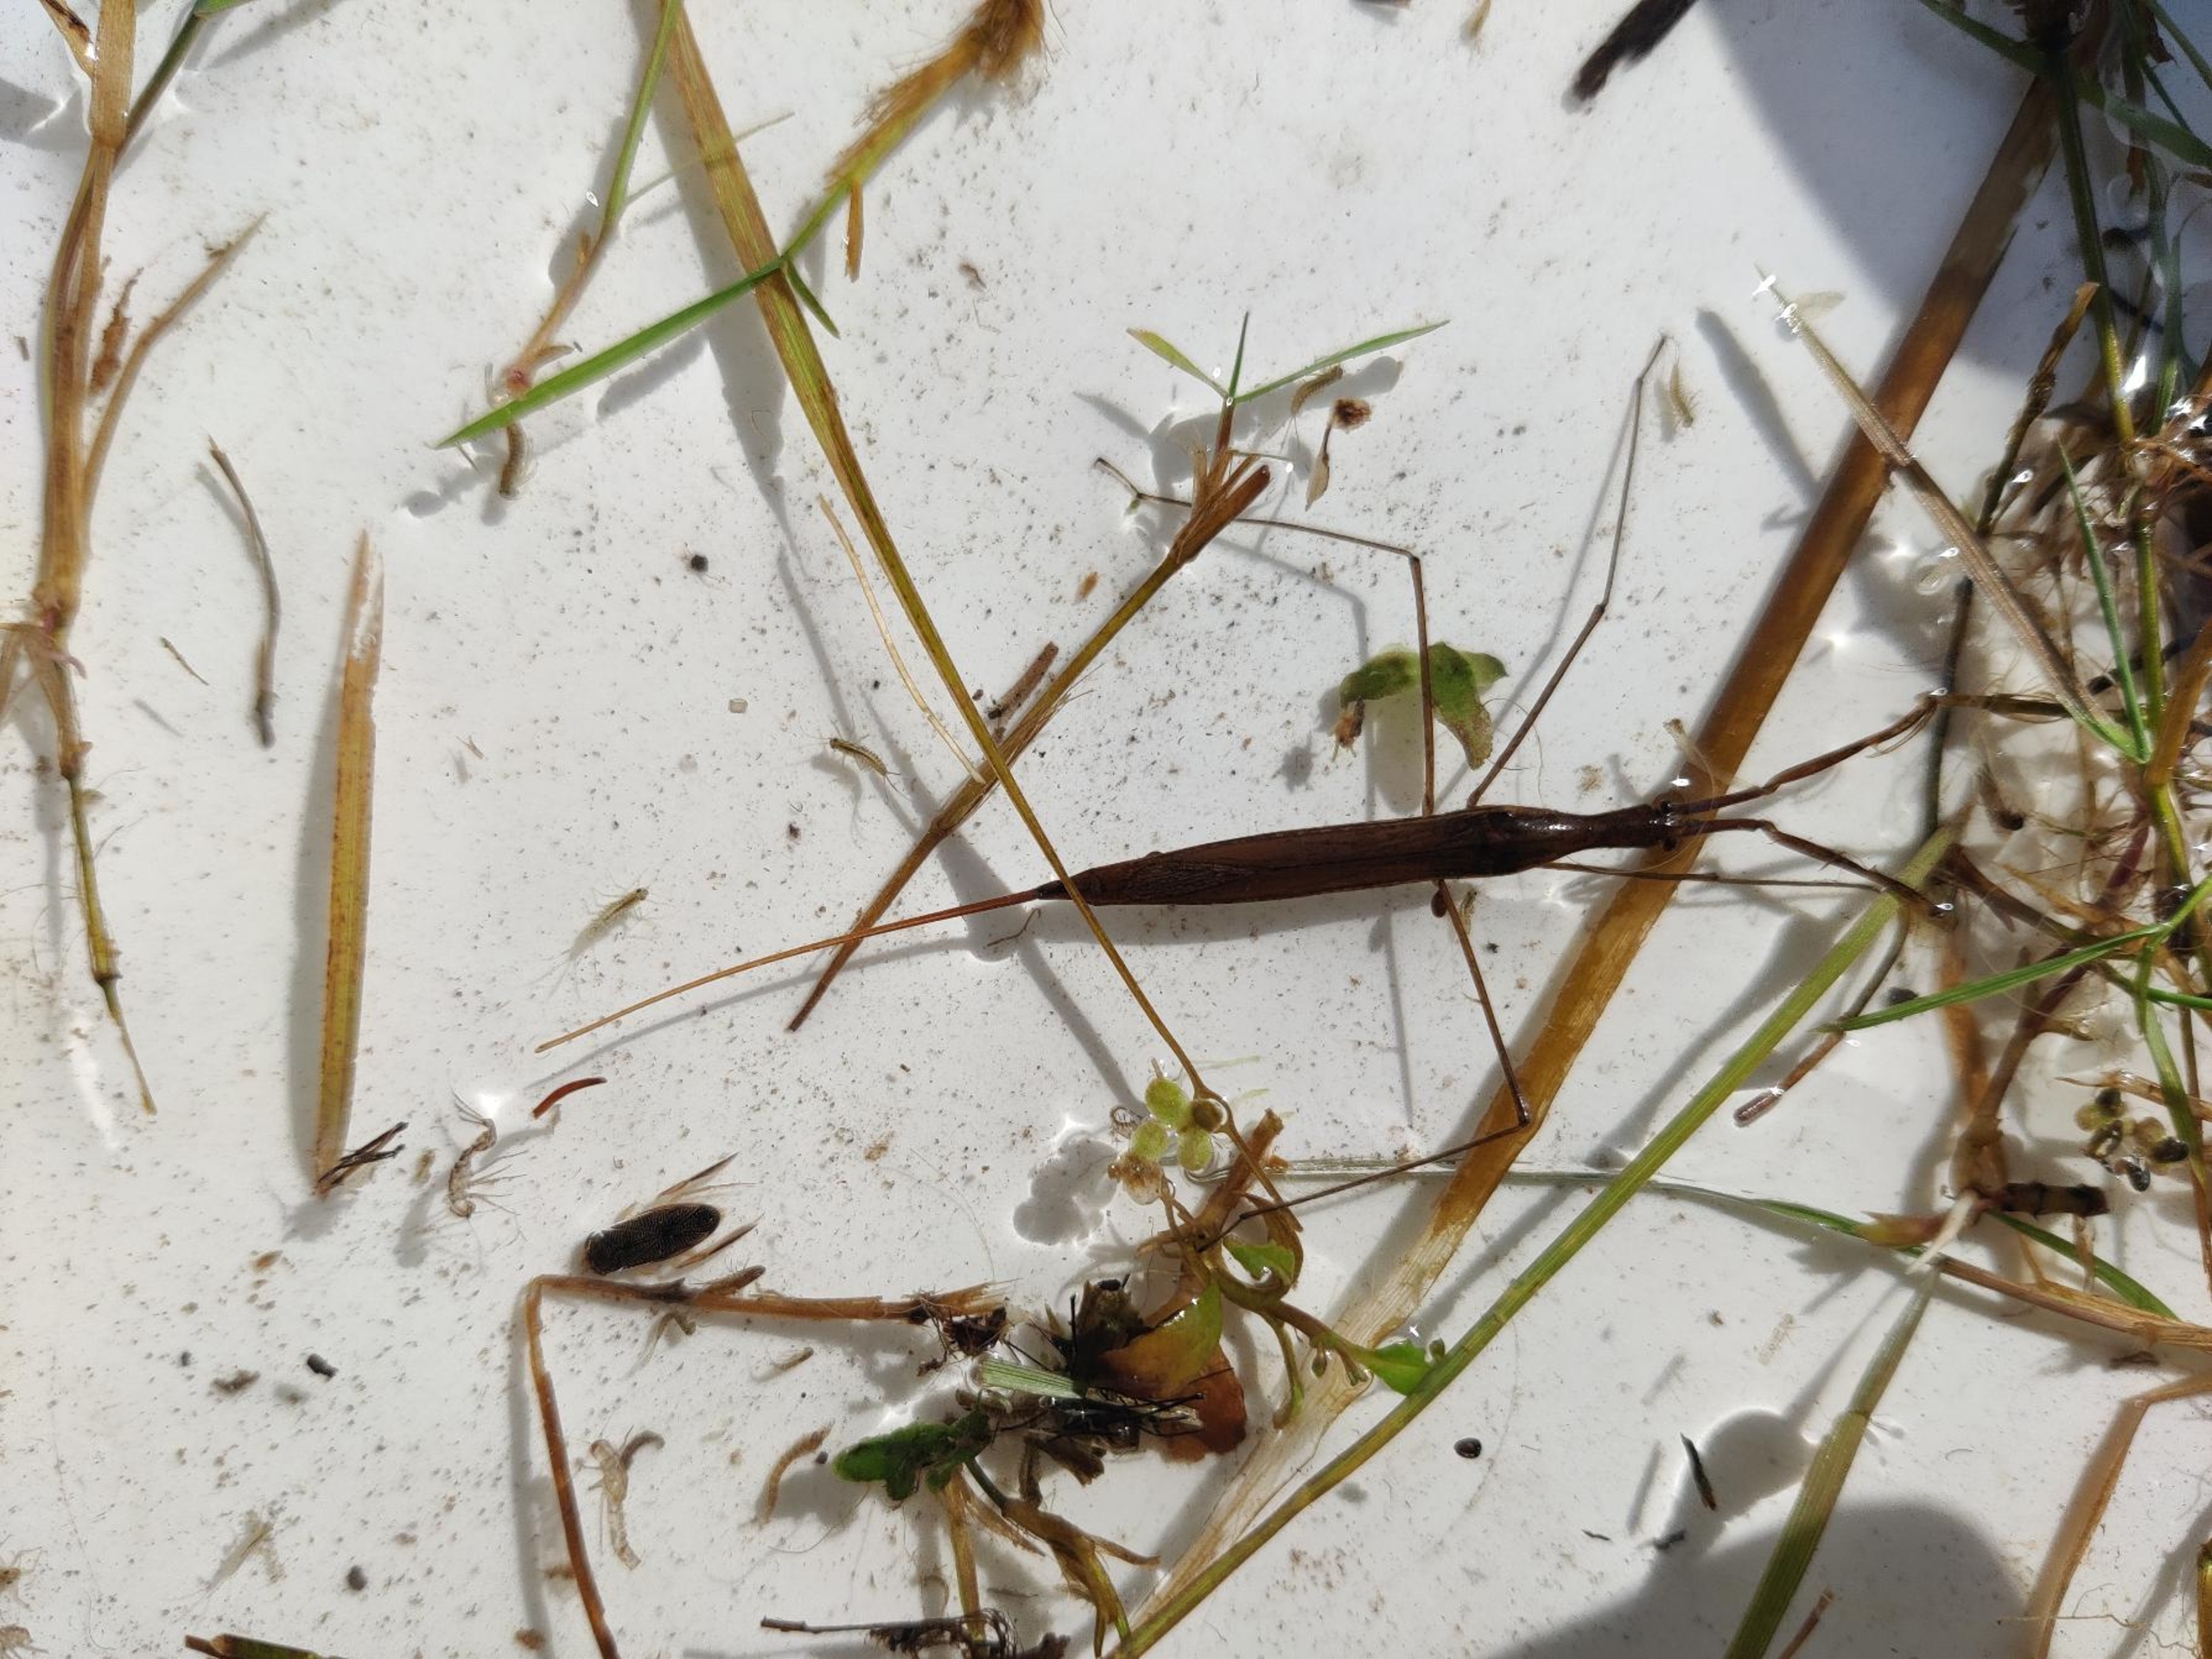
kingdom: Animalia
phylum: Arthropoda
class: Insecta
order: Hemiptera
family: Nepidae
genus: Ranatra
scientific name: Ranatra linearis
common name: Stavtæge
